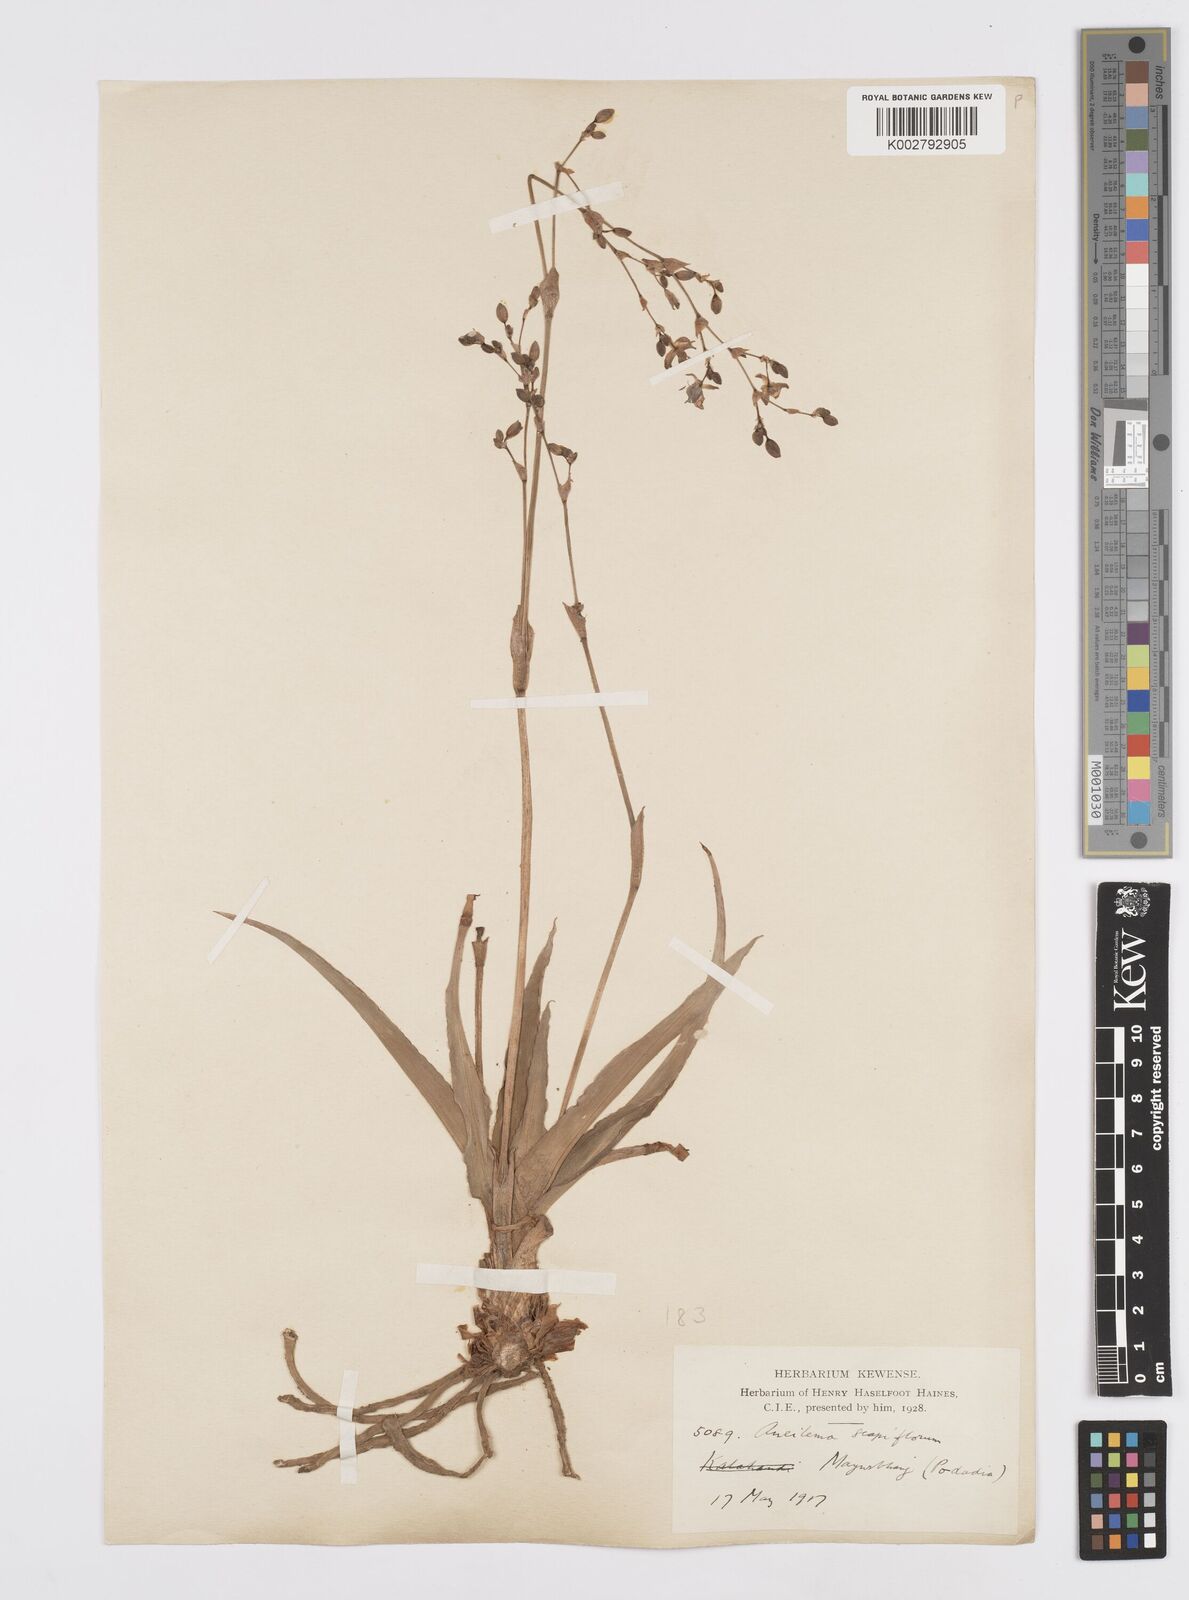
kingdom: Plantae
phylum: Tracheophyta
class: Liliopsida
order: Commelinales
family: Commelinaceae
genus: Murdannia
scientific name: Murdannia edulis
